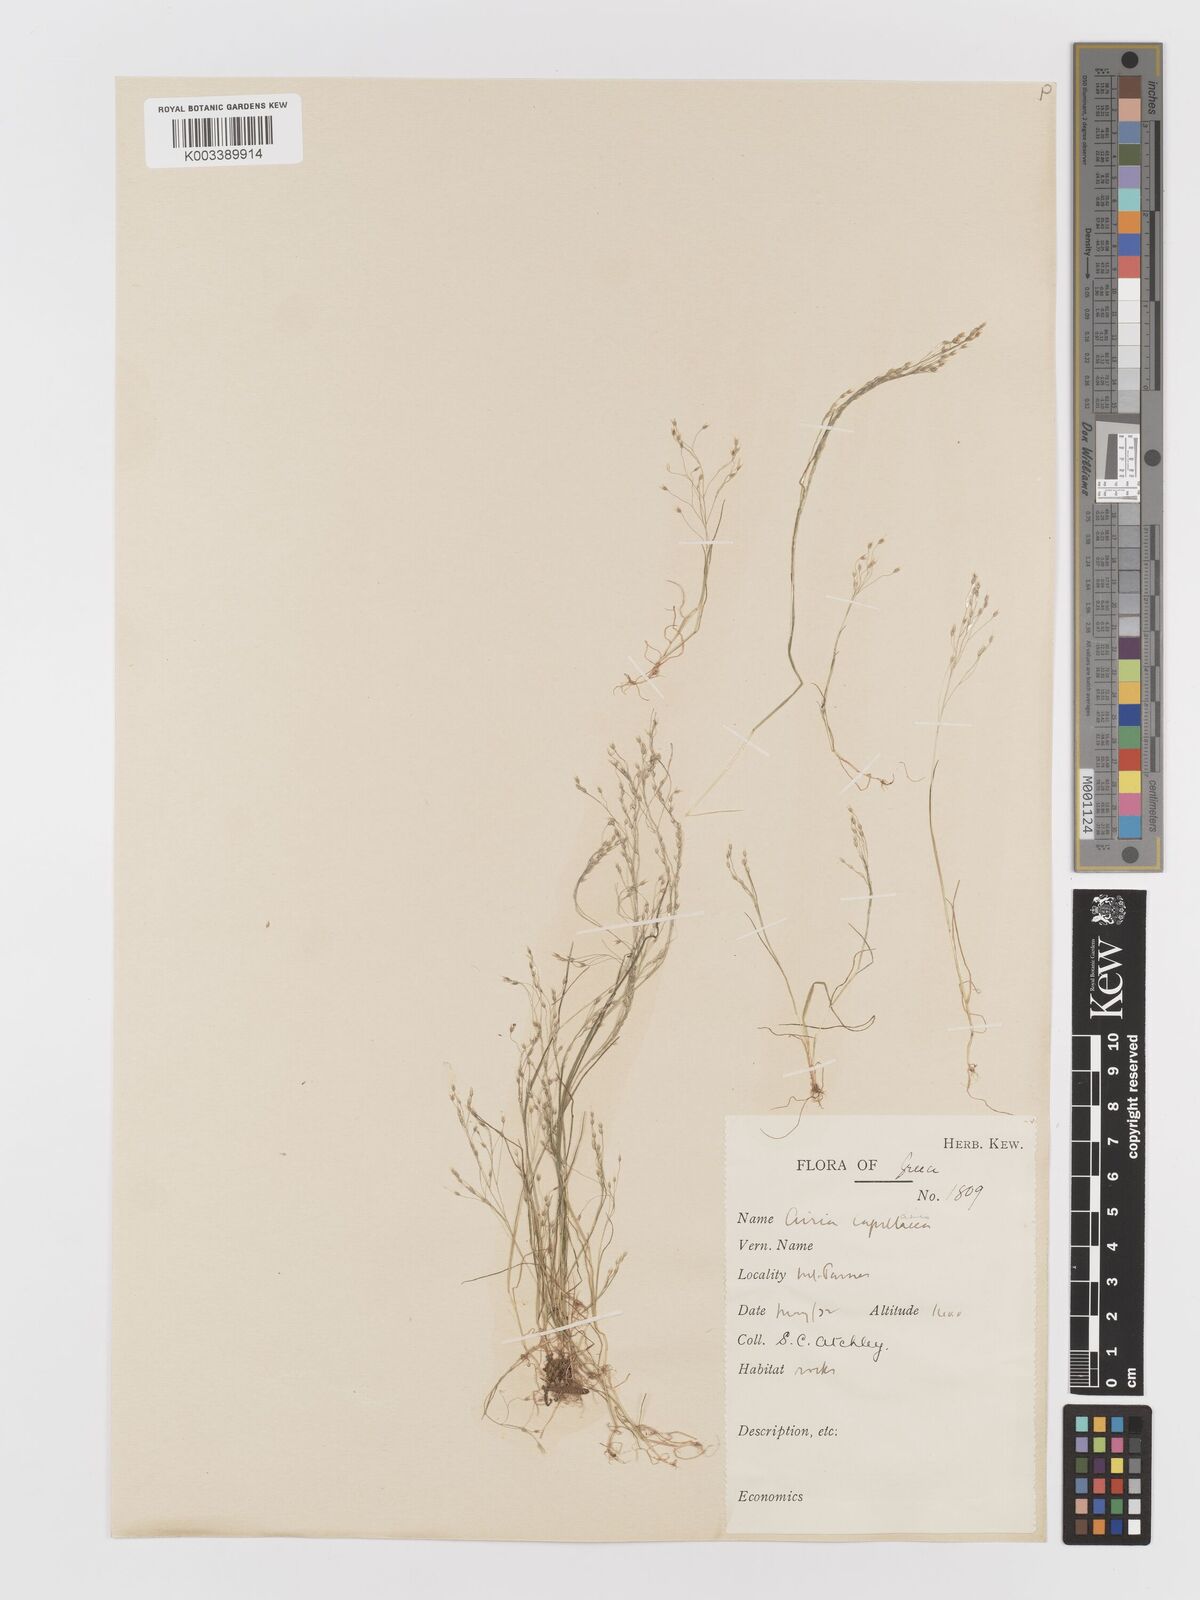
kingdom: Plantae
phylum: Tracheophyta
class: Liliopsida
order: Poales
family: Poaceae
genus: Aira
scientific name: Aira elegans
